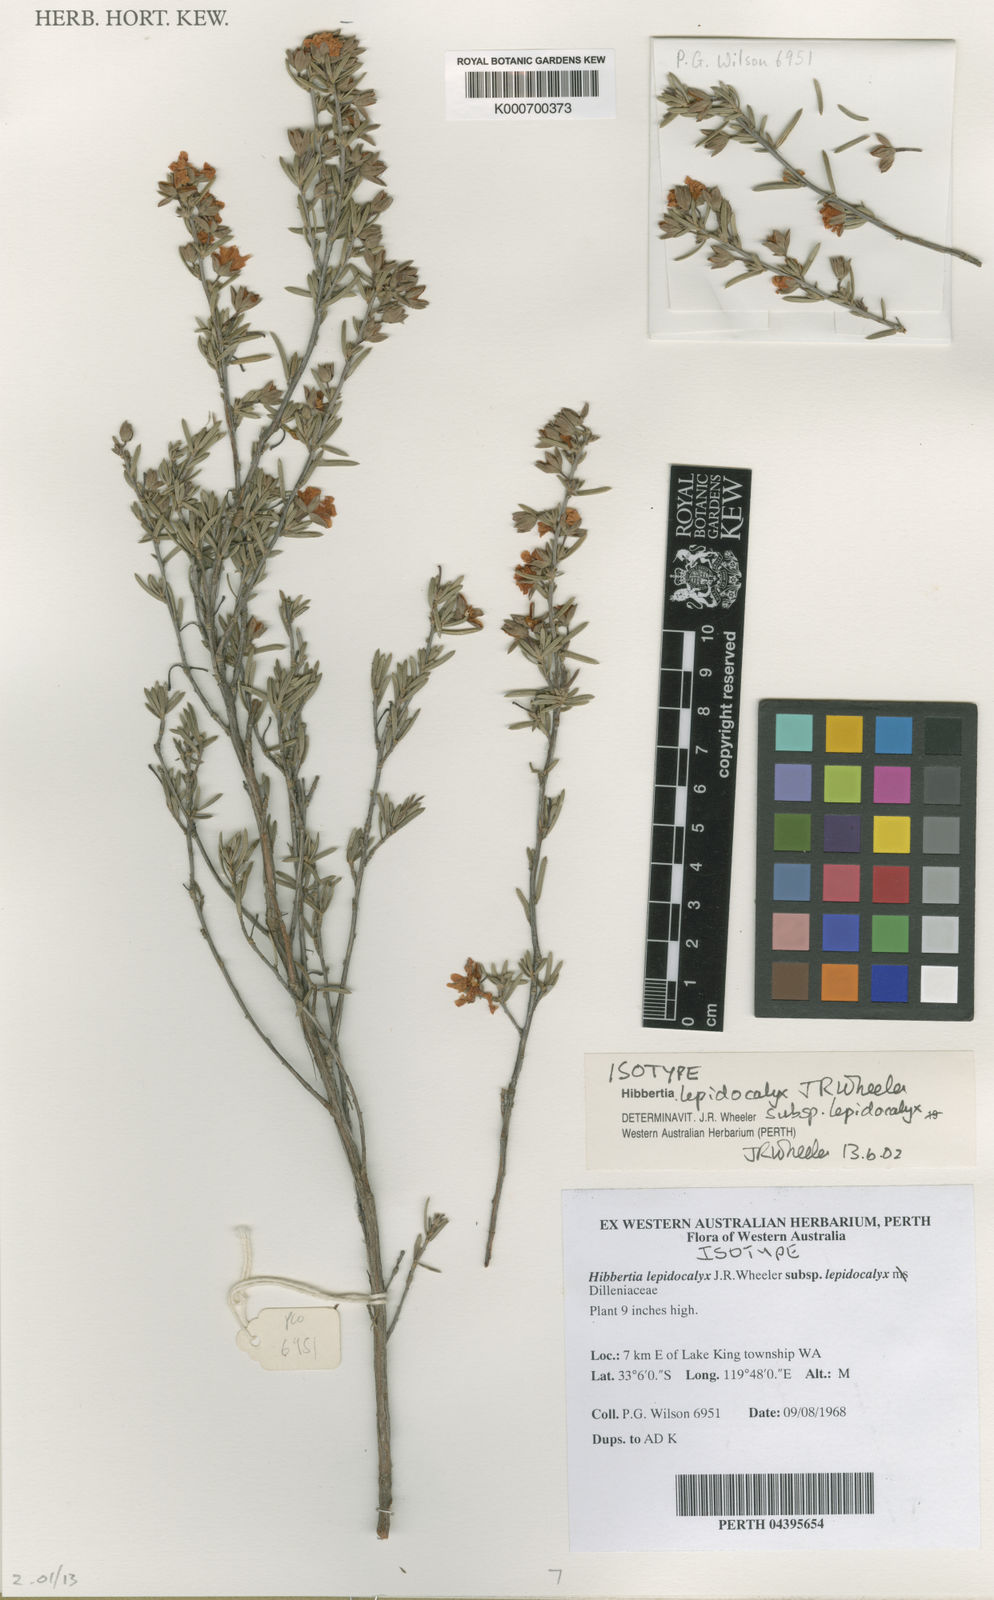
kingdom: Plantae
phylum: Tracheophyta
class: Magnoliopsida
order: Dilleniales
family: Dilleniaceae
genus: Hibbertia
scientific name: Hibbertia lepidocalyx
